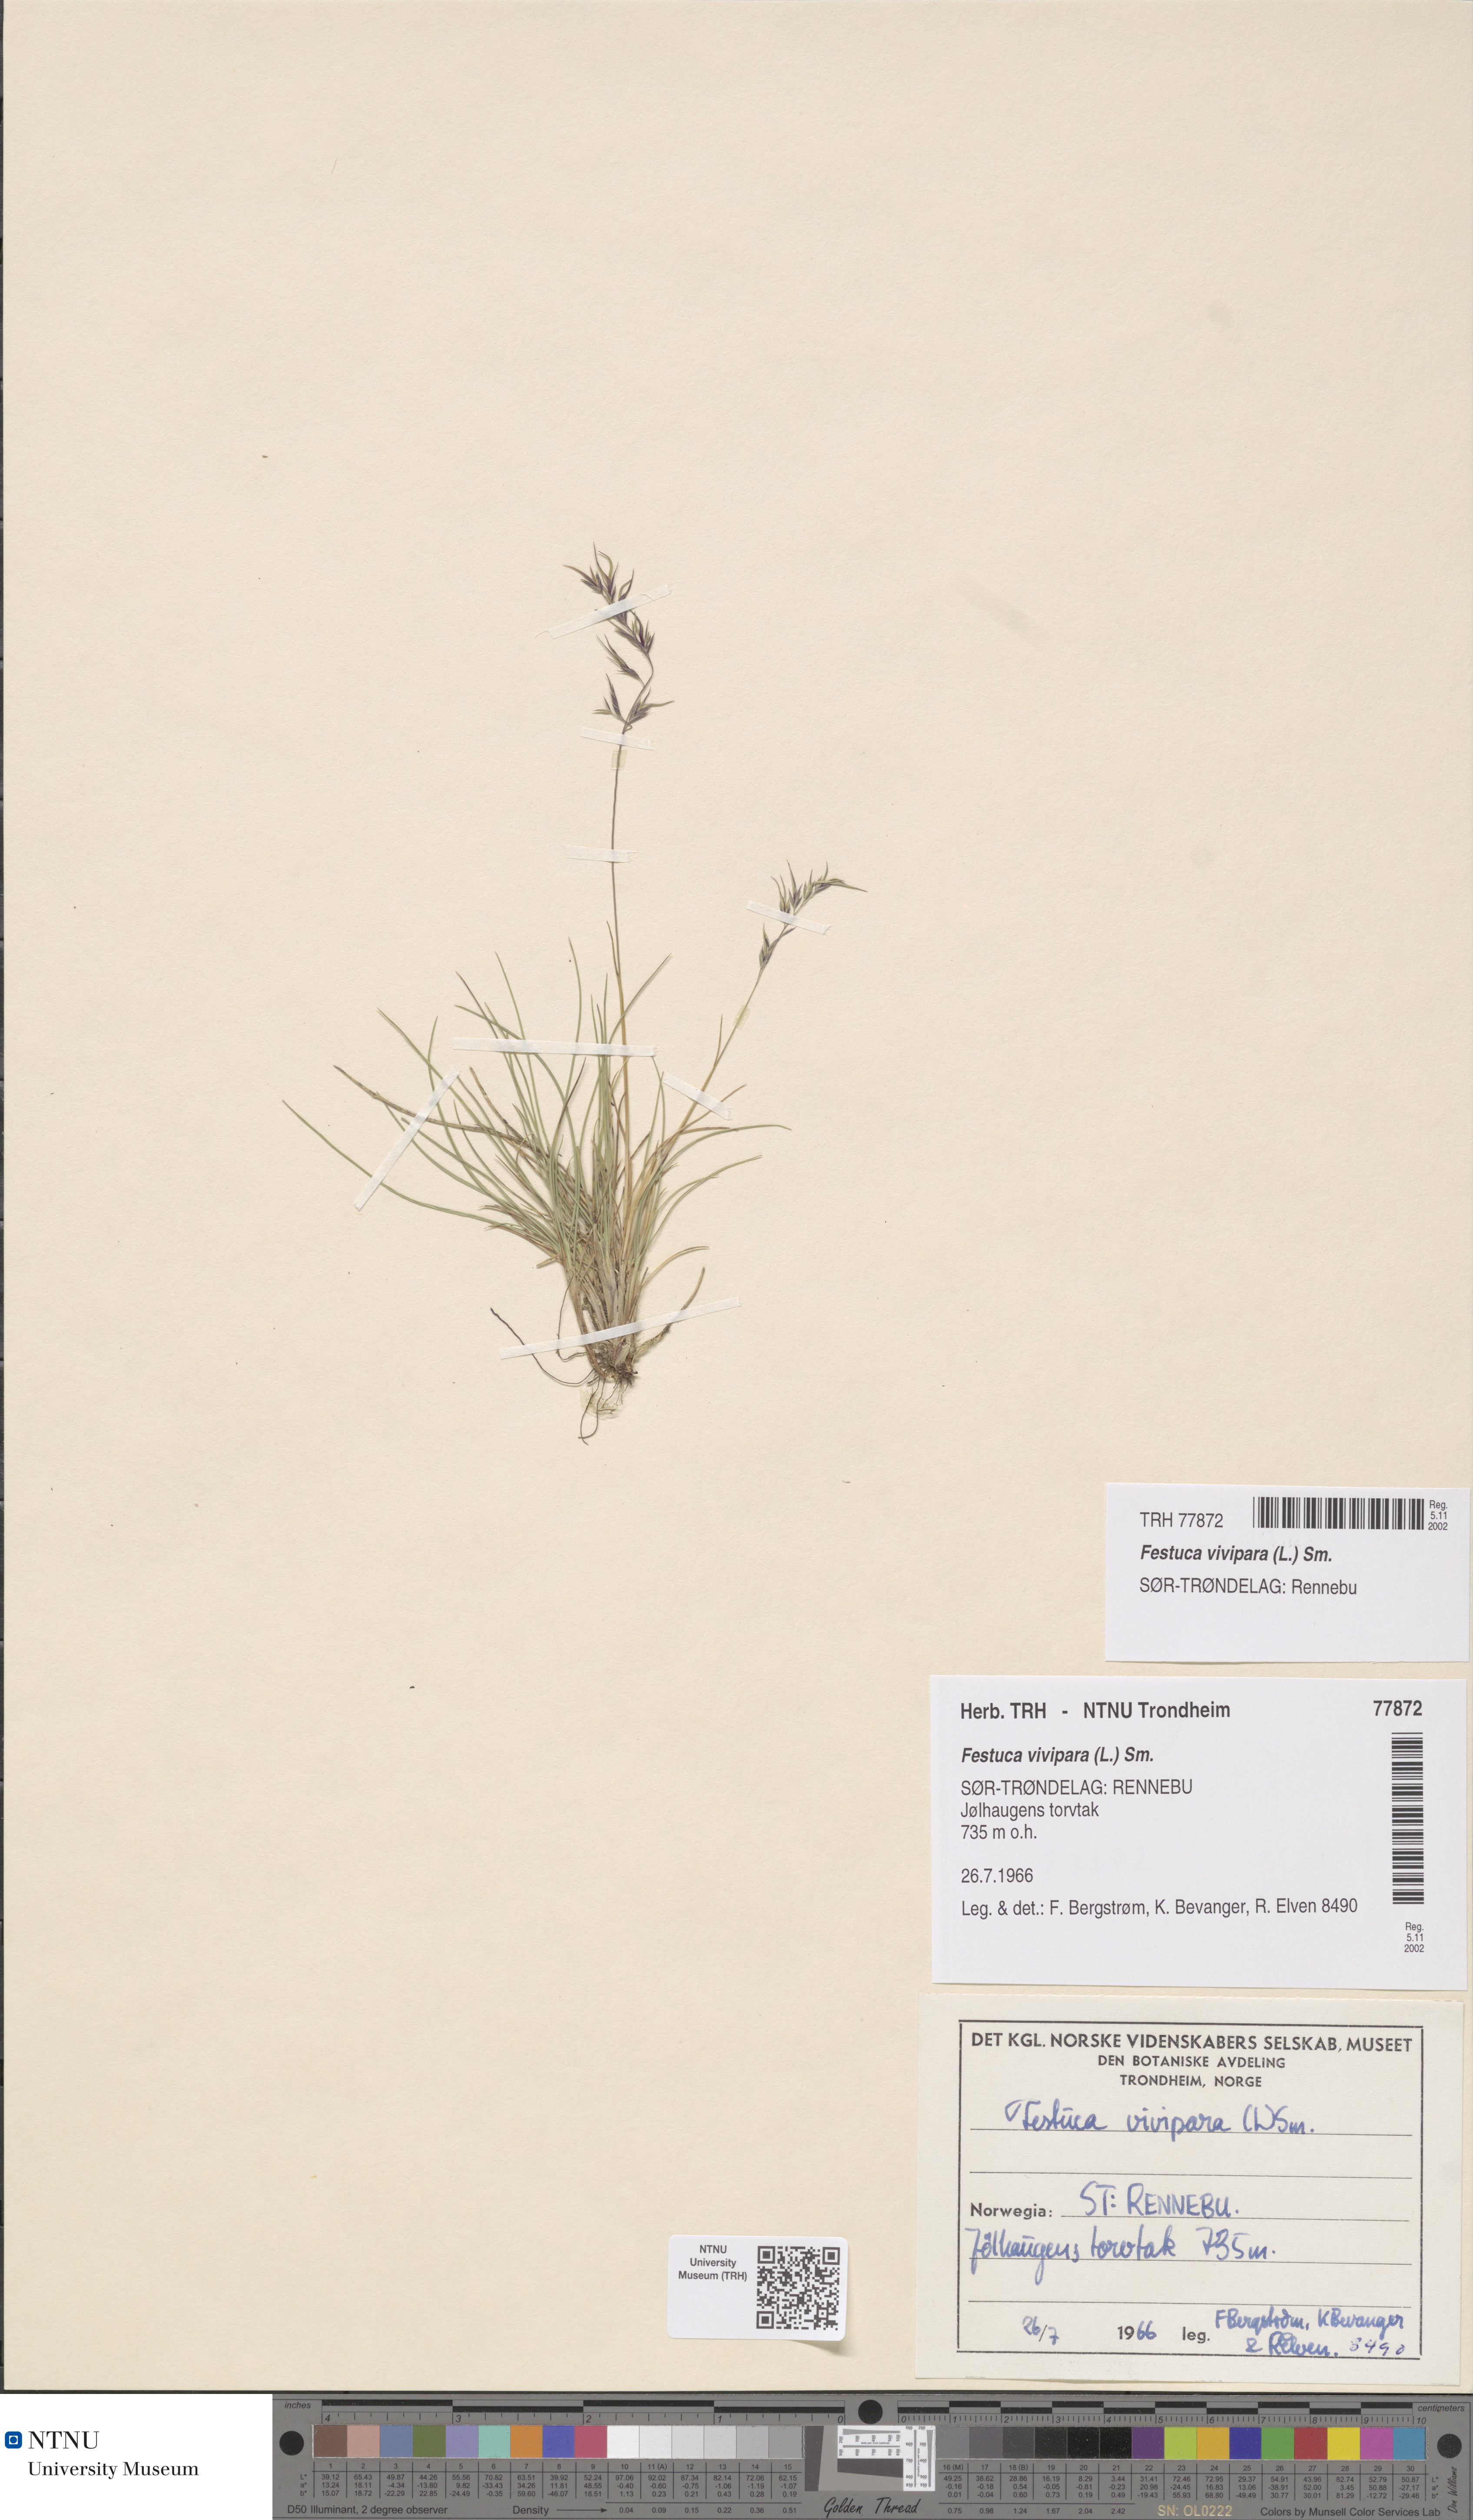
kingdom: Plantae
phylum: Tracheophyta
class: Liliopsida
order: Poales
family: Poaceae
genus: Festuca
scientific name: Festuca vivipara
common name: Viviparous sheep's-fescue
